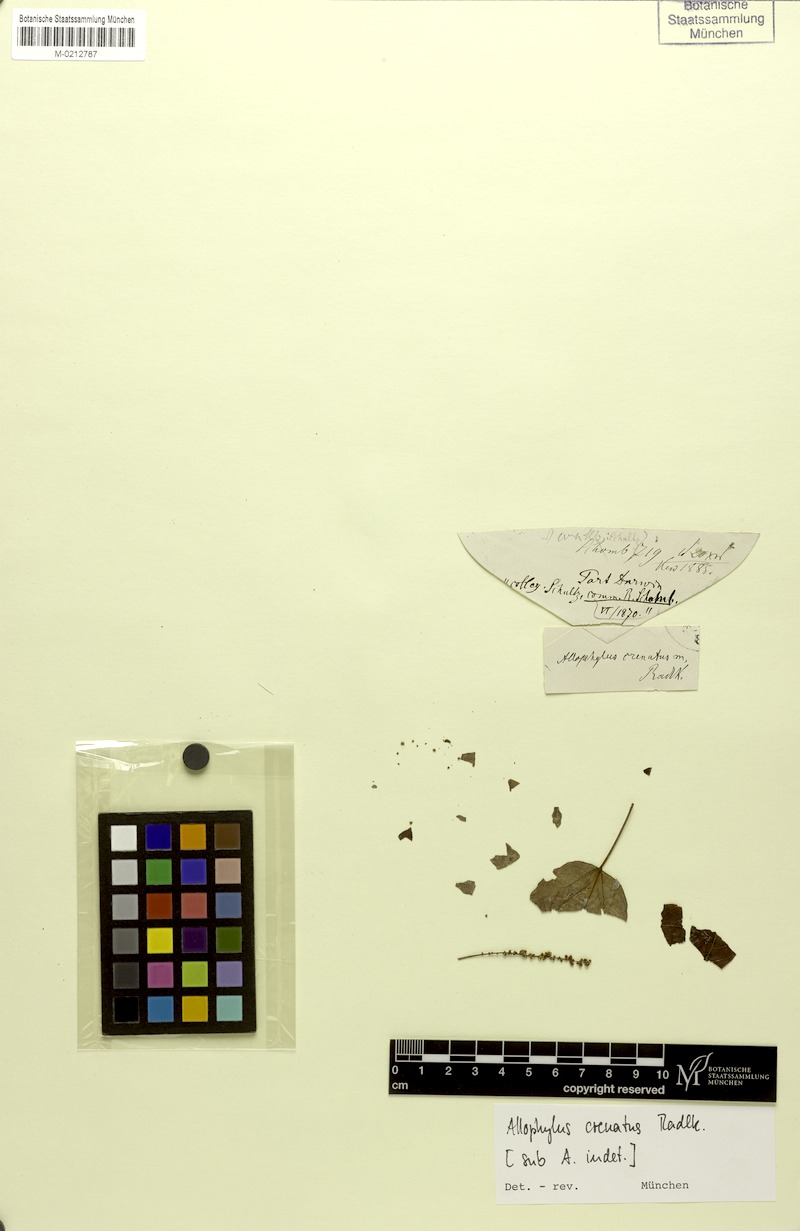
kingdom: Plantae
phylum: Tracheophyta
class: Magnoliopsida
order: Sapindales
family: Sapindaceae
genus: Allophylus
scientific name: Allophylus crenatus
